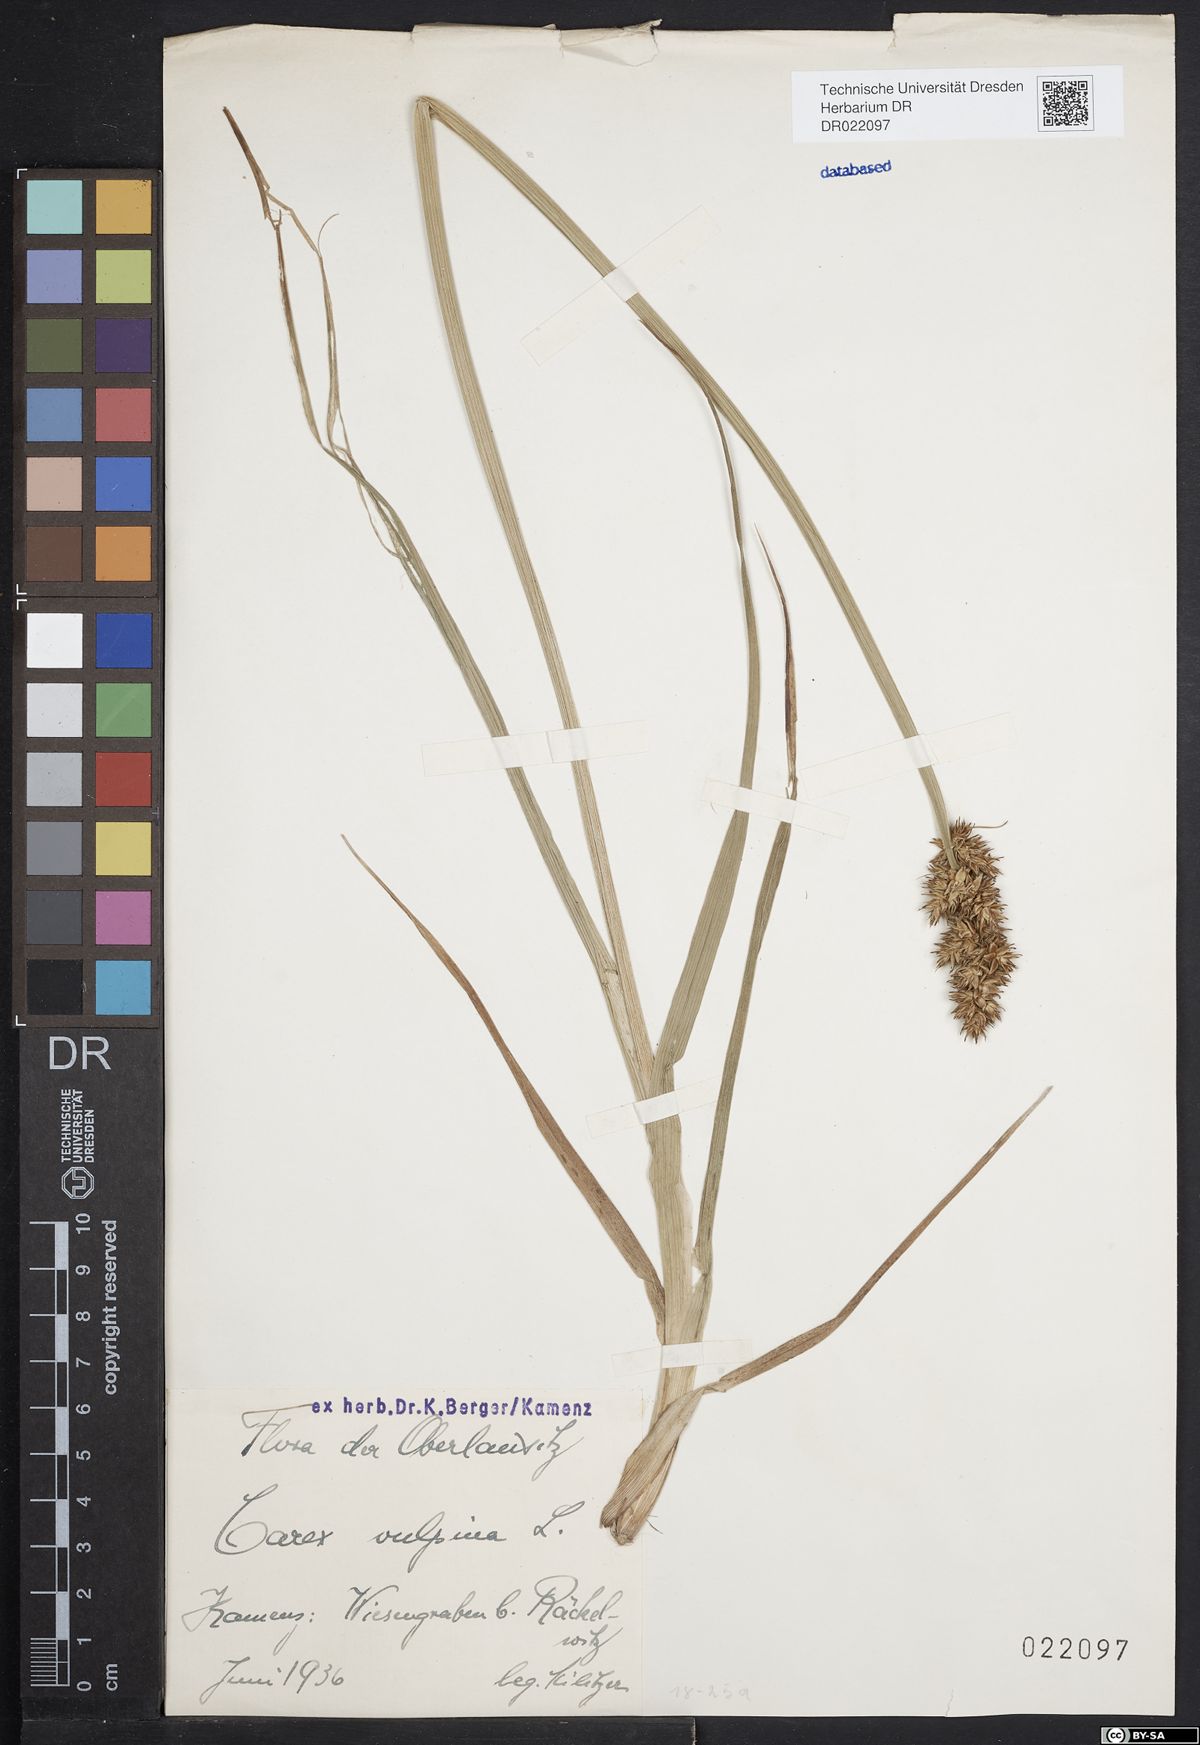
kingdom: Plantae
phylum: Tracheophyta
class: Liliopsida
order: Poales
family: Cyperaceae
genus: Carex
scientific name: Carex vulpina
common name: True fox-sedge
